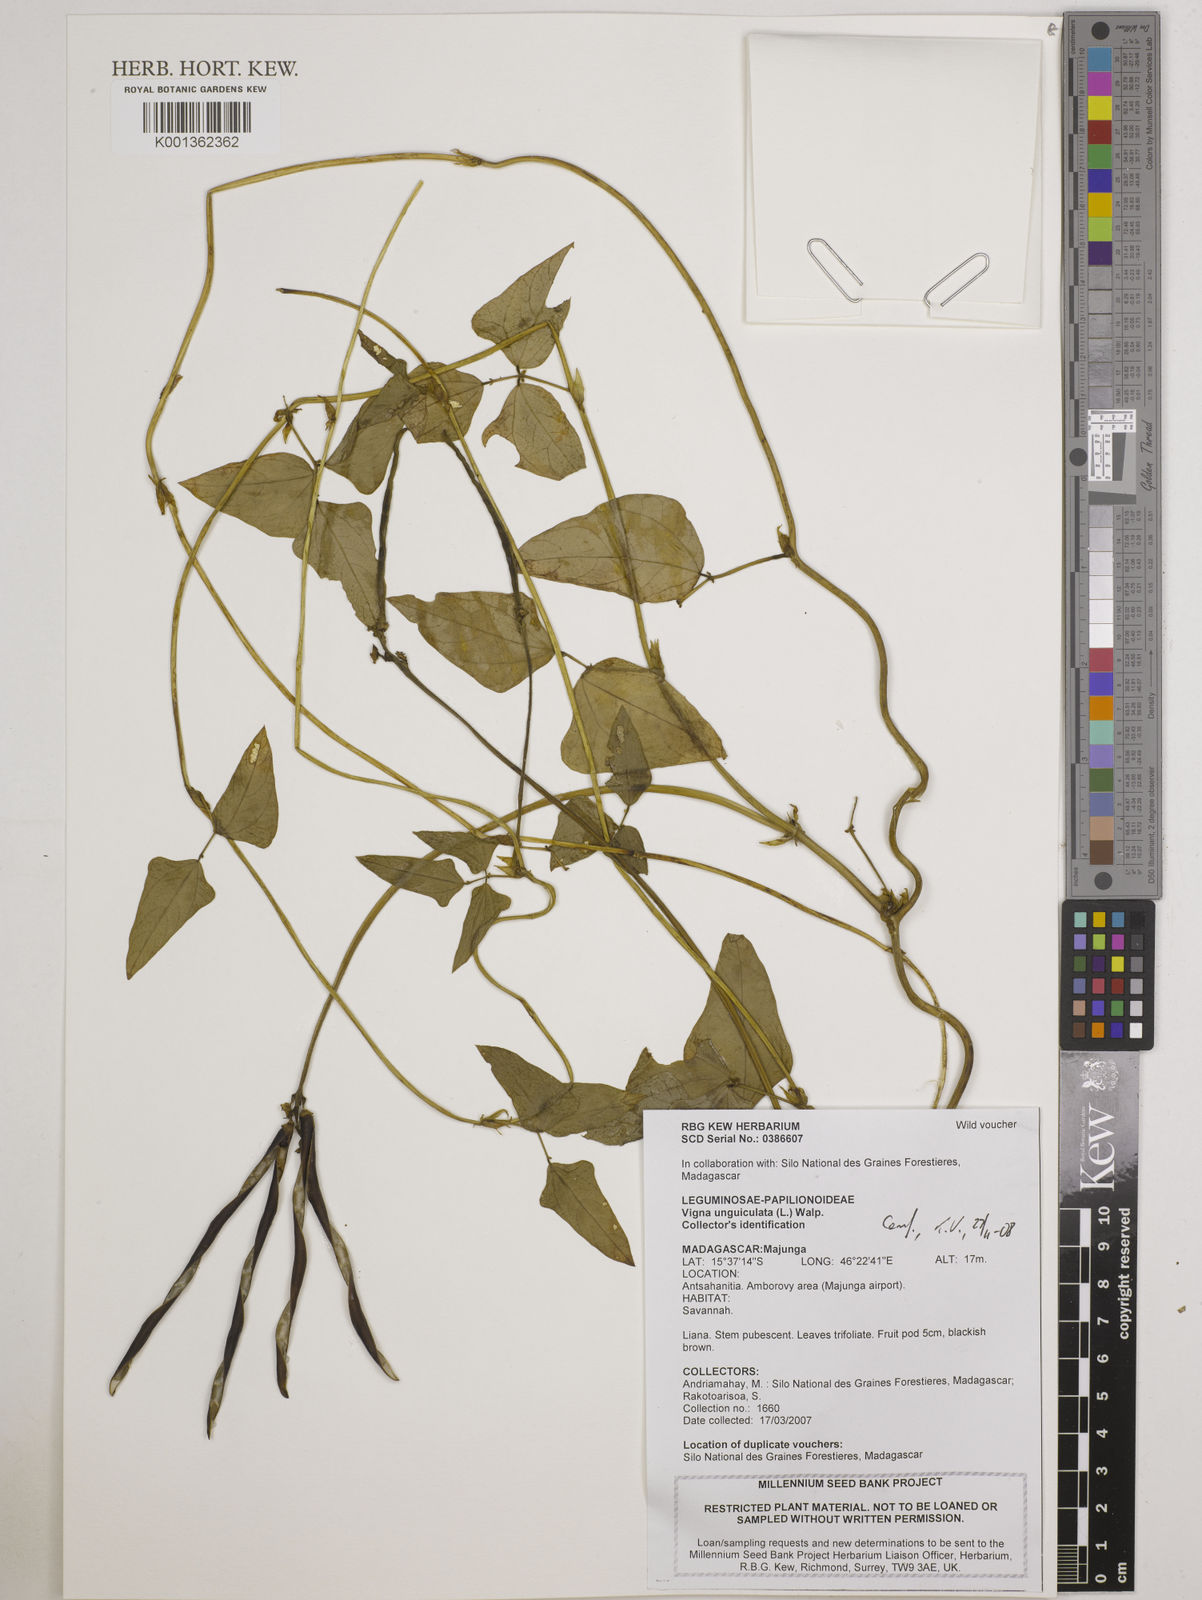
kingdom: Plantae
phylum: Tracheophyta
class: Magnoliopsida
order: Fabales
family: Fabaceae
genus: Vigna
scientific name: Vigna unguiculata
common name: Cowpea
